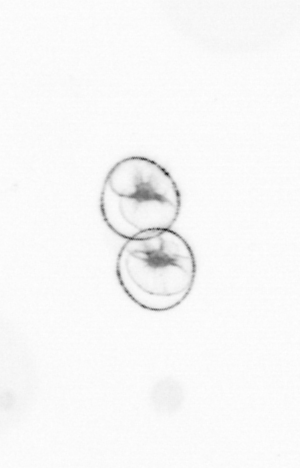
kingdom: Chromista
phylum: Myzozoa
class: Dinophyceae
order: Noctilucales
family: Noctilucaceae
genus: Noctiluca
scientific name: Noctiluca scintillans
